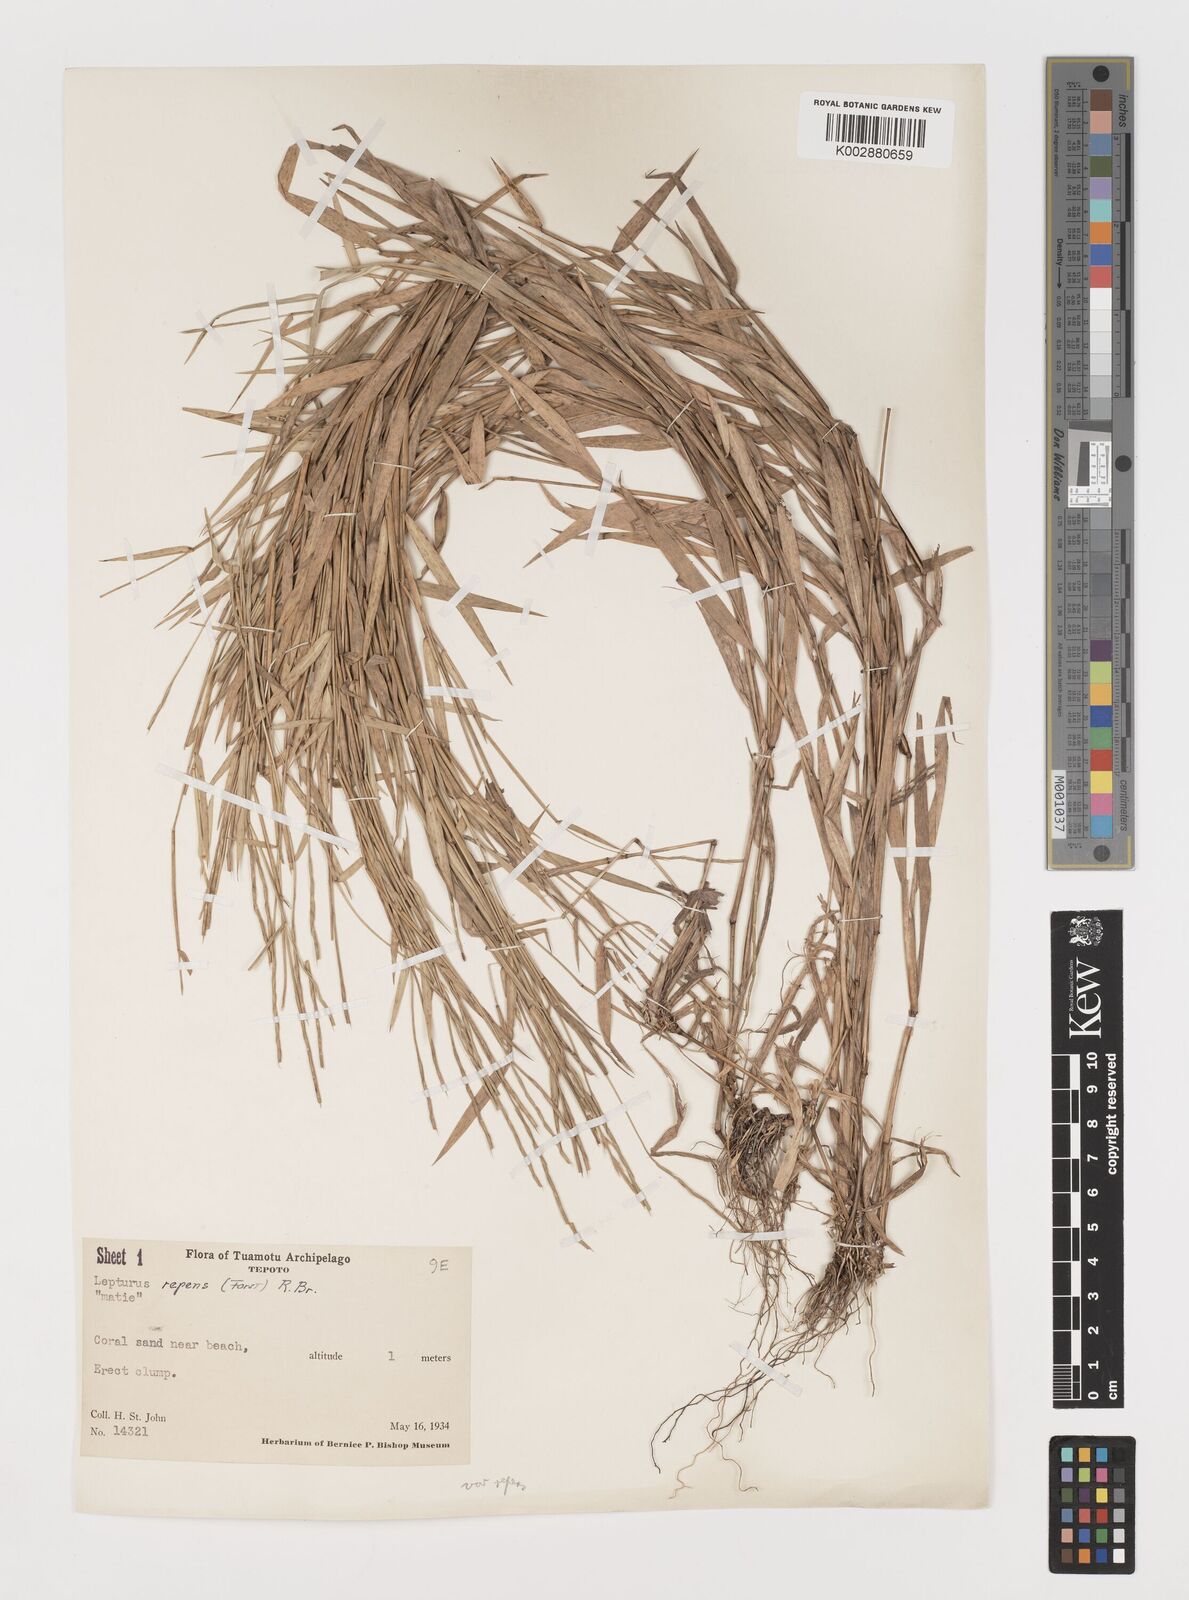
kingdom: Plantae
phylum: Tracheophyta
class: Liliopsida
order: Poales
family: Poaceae
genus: Lepturus
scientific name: Lepturus repens
